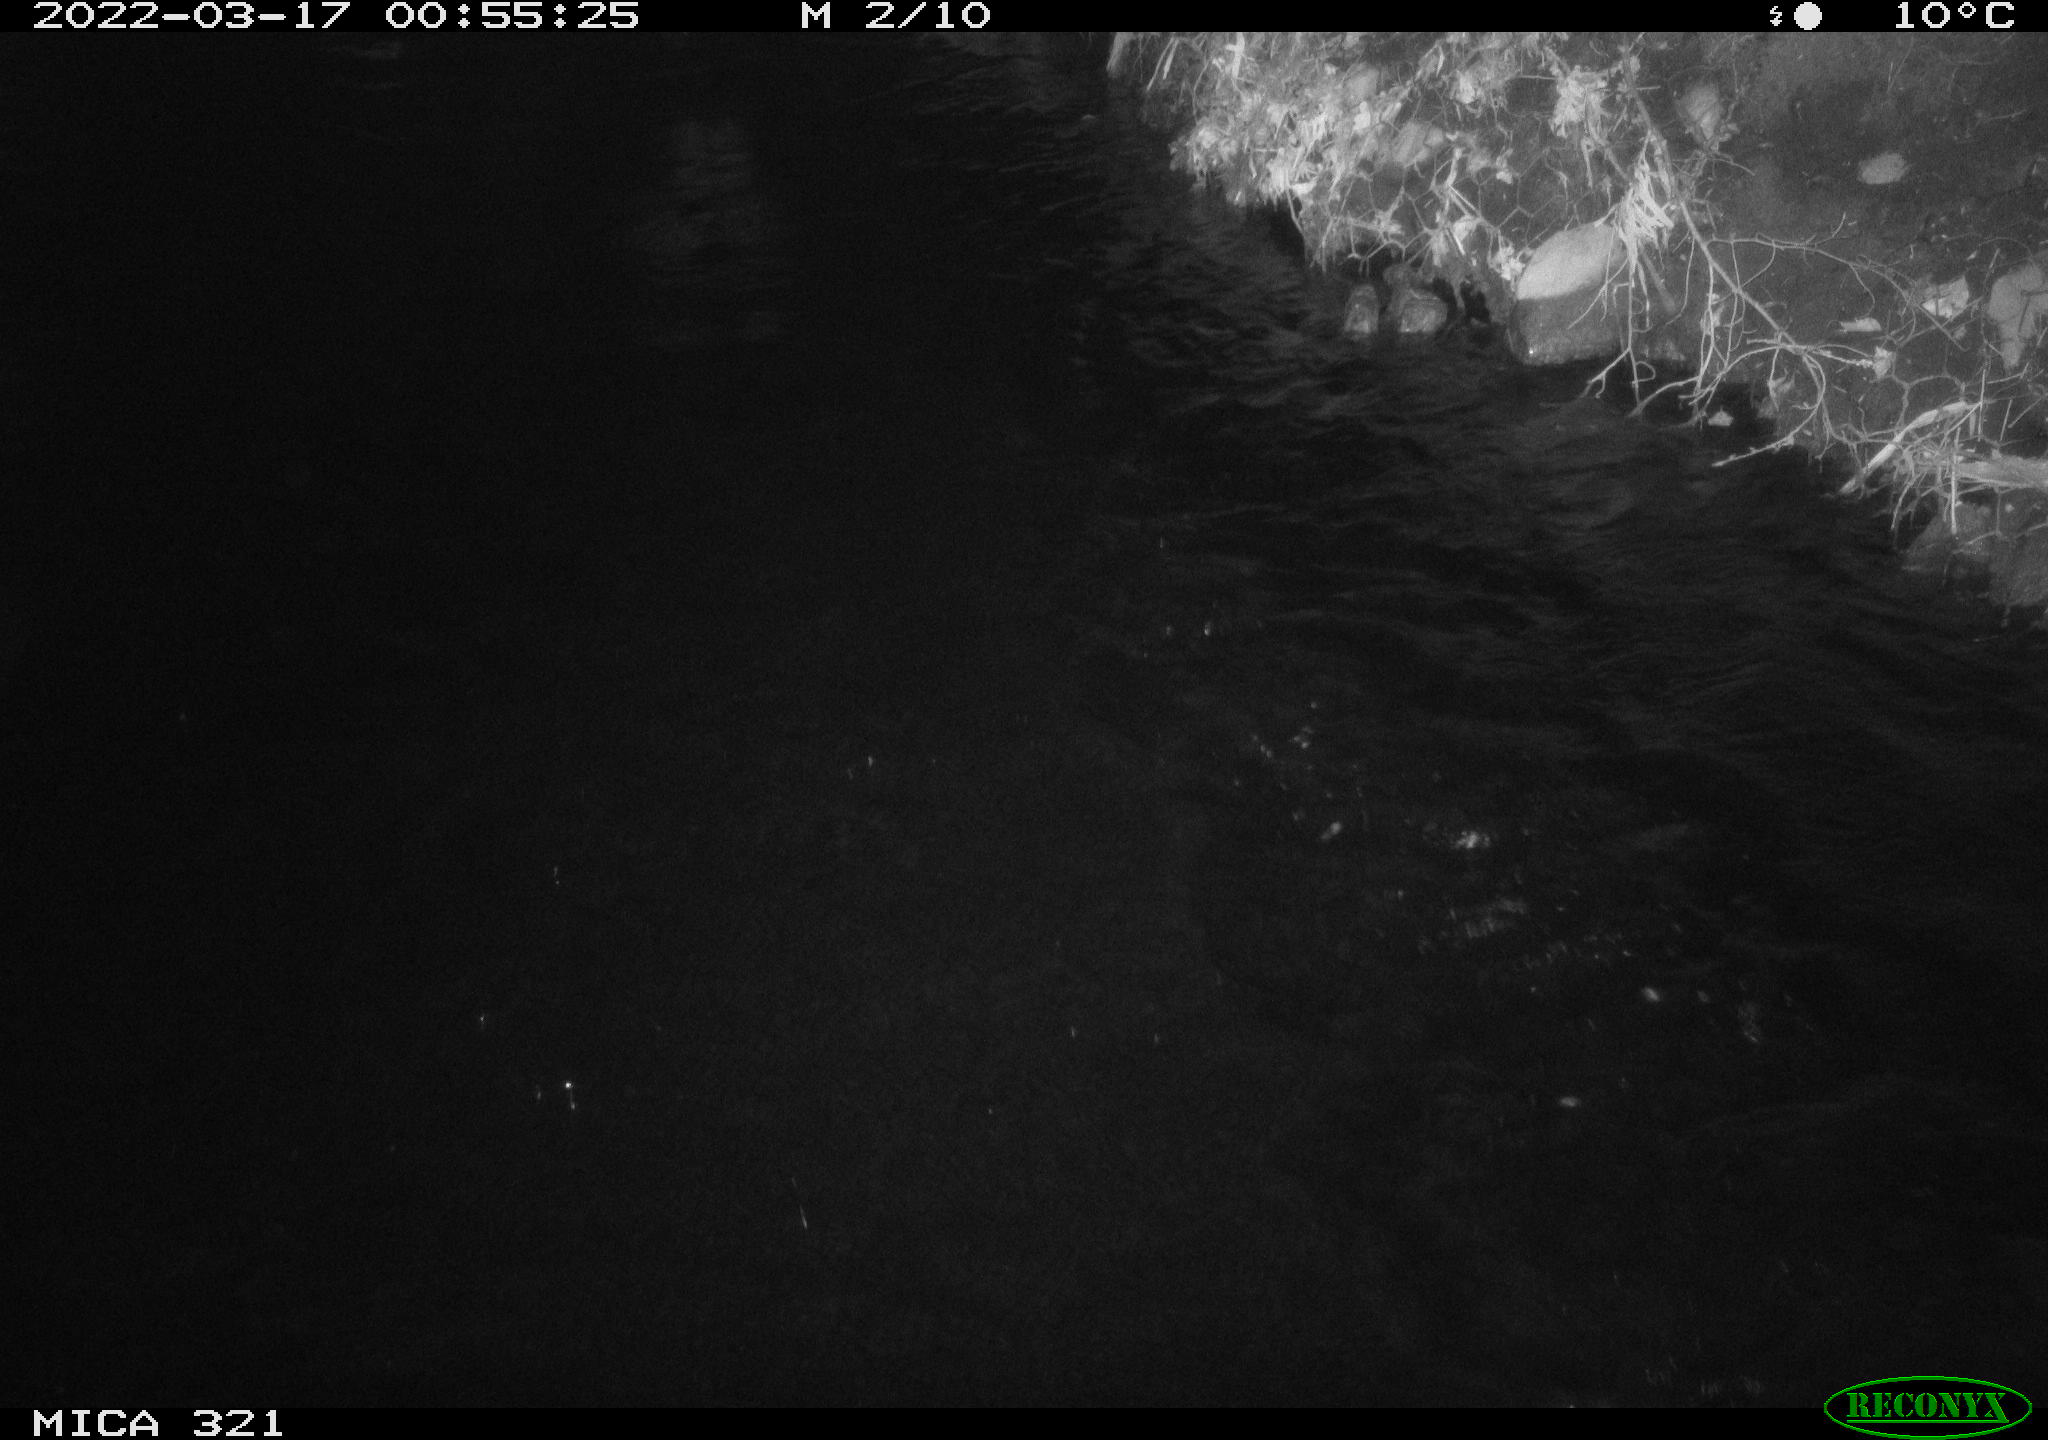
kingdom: Animalia
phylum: Chordata
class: Aves
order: Anseriformes
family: Anatidae
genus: Anas
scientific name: Anas platyrhynchos
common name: Mallard
